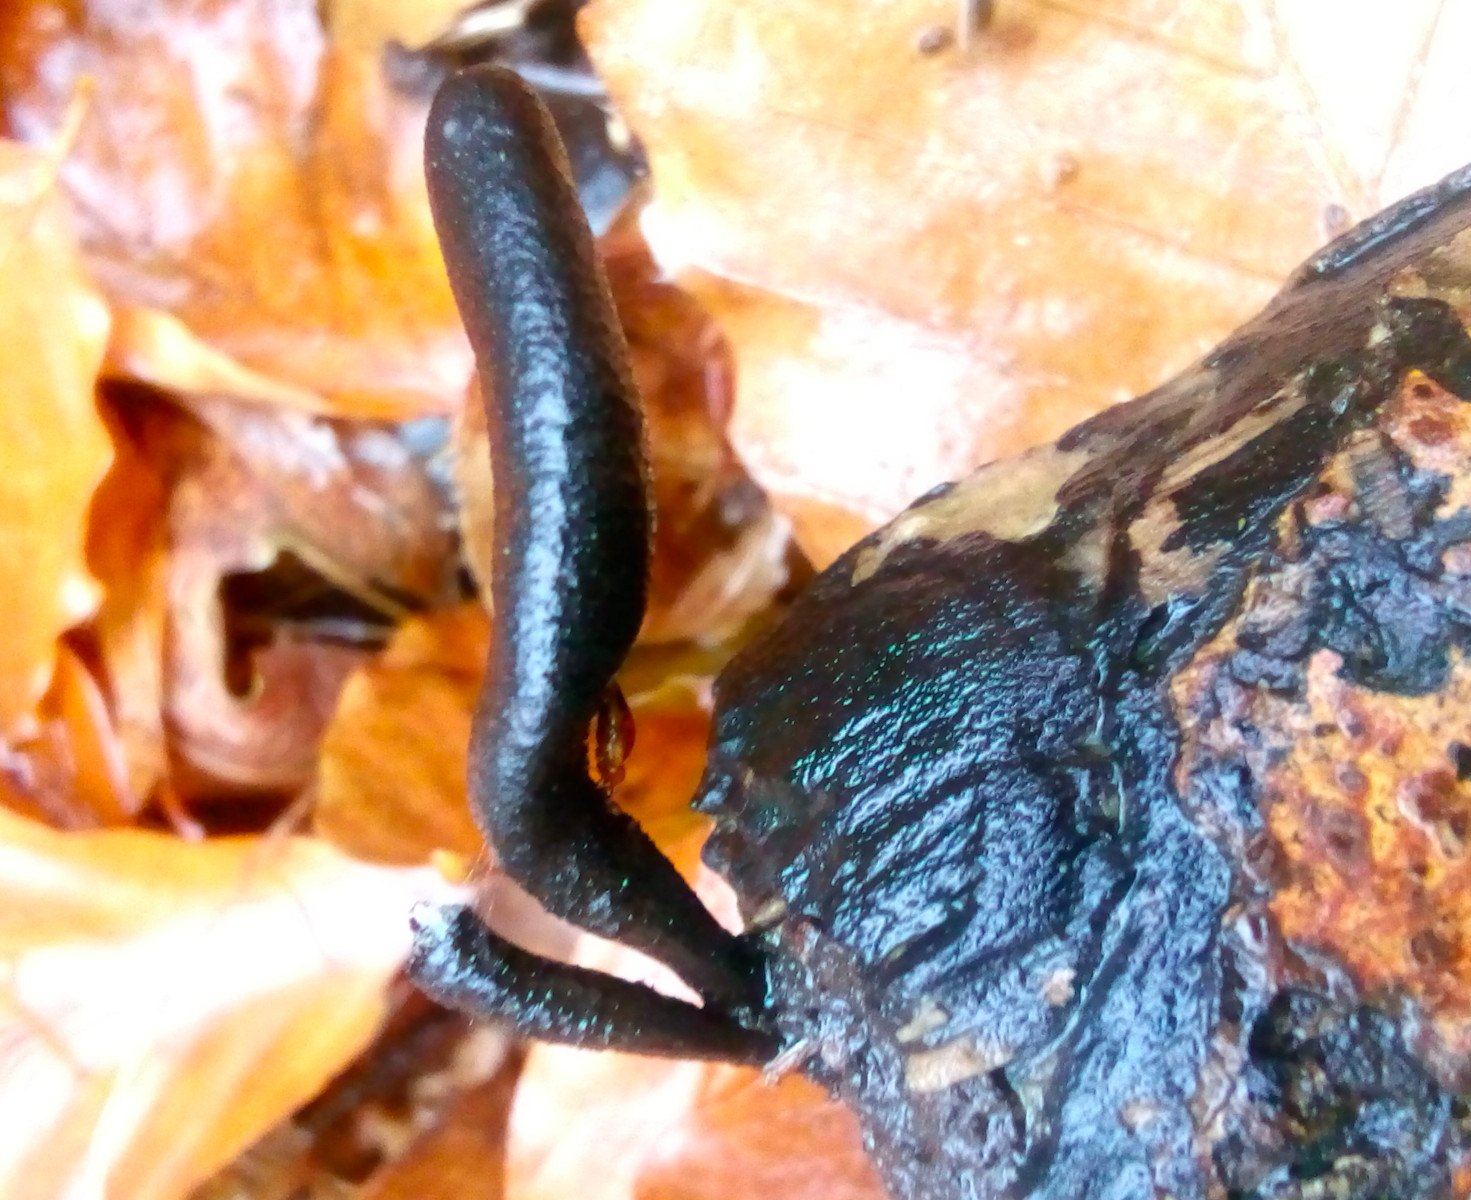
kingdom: Fungi
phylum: Ascomycota
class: Sordariomycetes
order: Xylariales
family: Xylariaceae
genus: Xylaria
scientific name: Xylaria longipes
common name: slank stødsvamp
